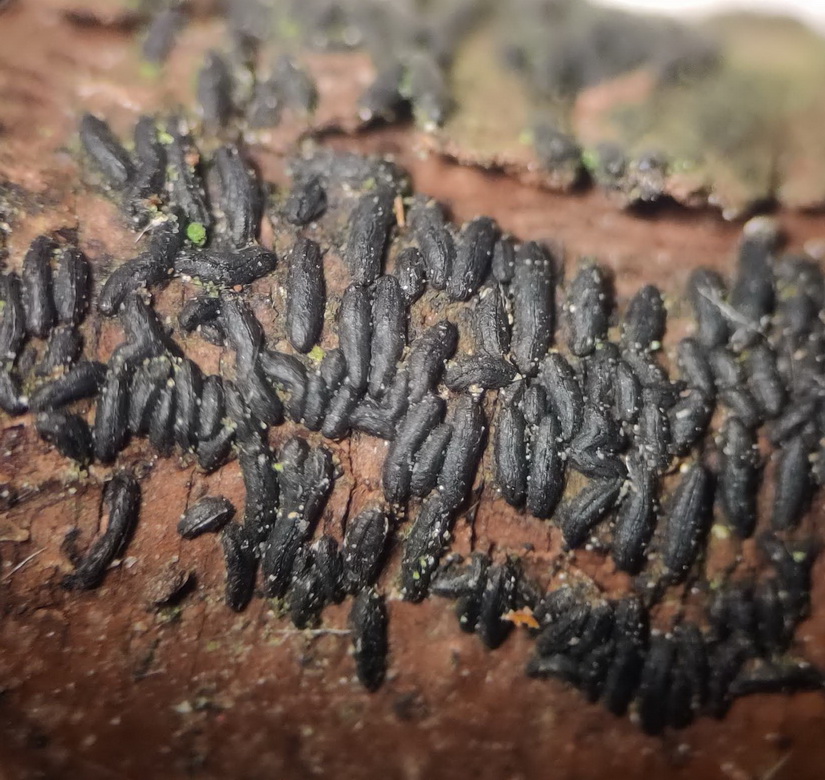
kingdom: Fungi
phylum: Ascomycota
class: Dothideomycetes
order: Hysteriales
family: Hysteriaceae
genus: Hysterium
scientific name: Hysterium acuminatum
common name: almindelig kulmund
